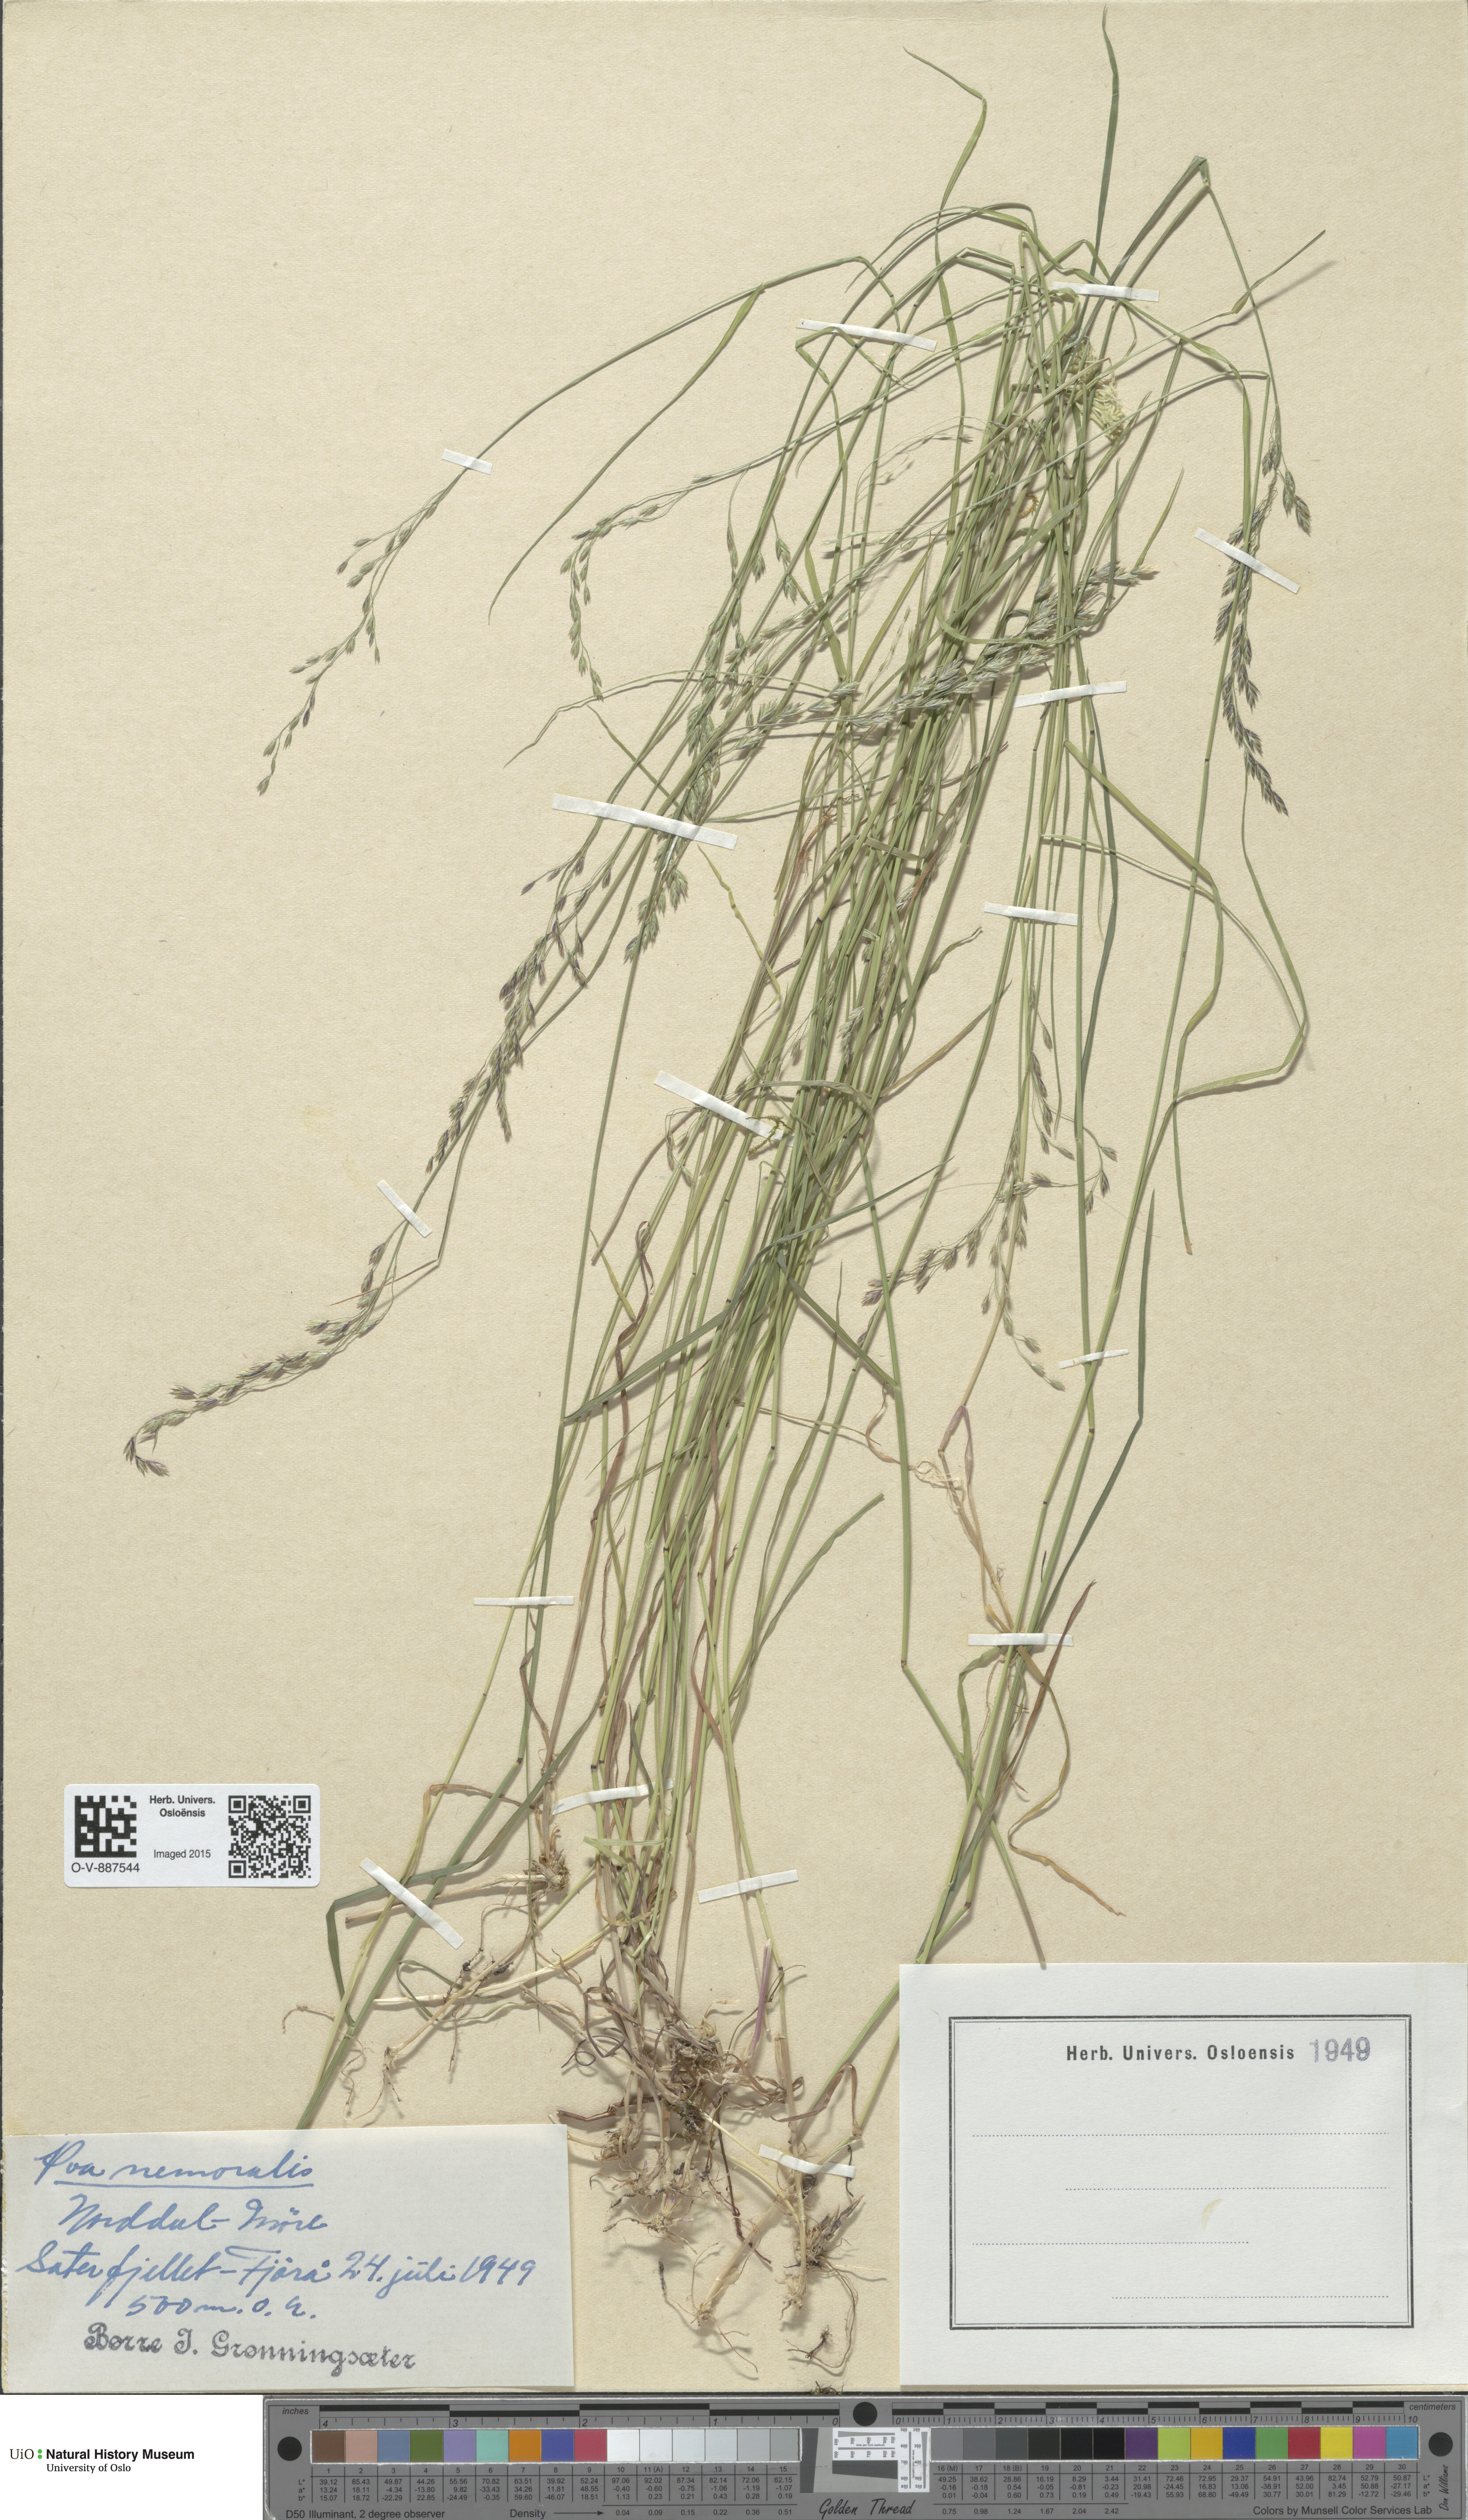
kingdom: Plantae
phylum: Tracheophyta
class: Liliopsida
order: Poales
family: Poaceae
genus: Poa
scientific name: Poa nemoralis
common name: Wood bluegrass
